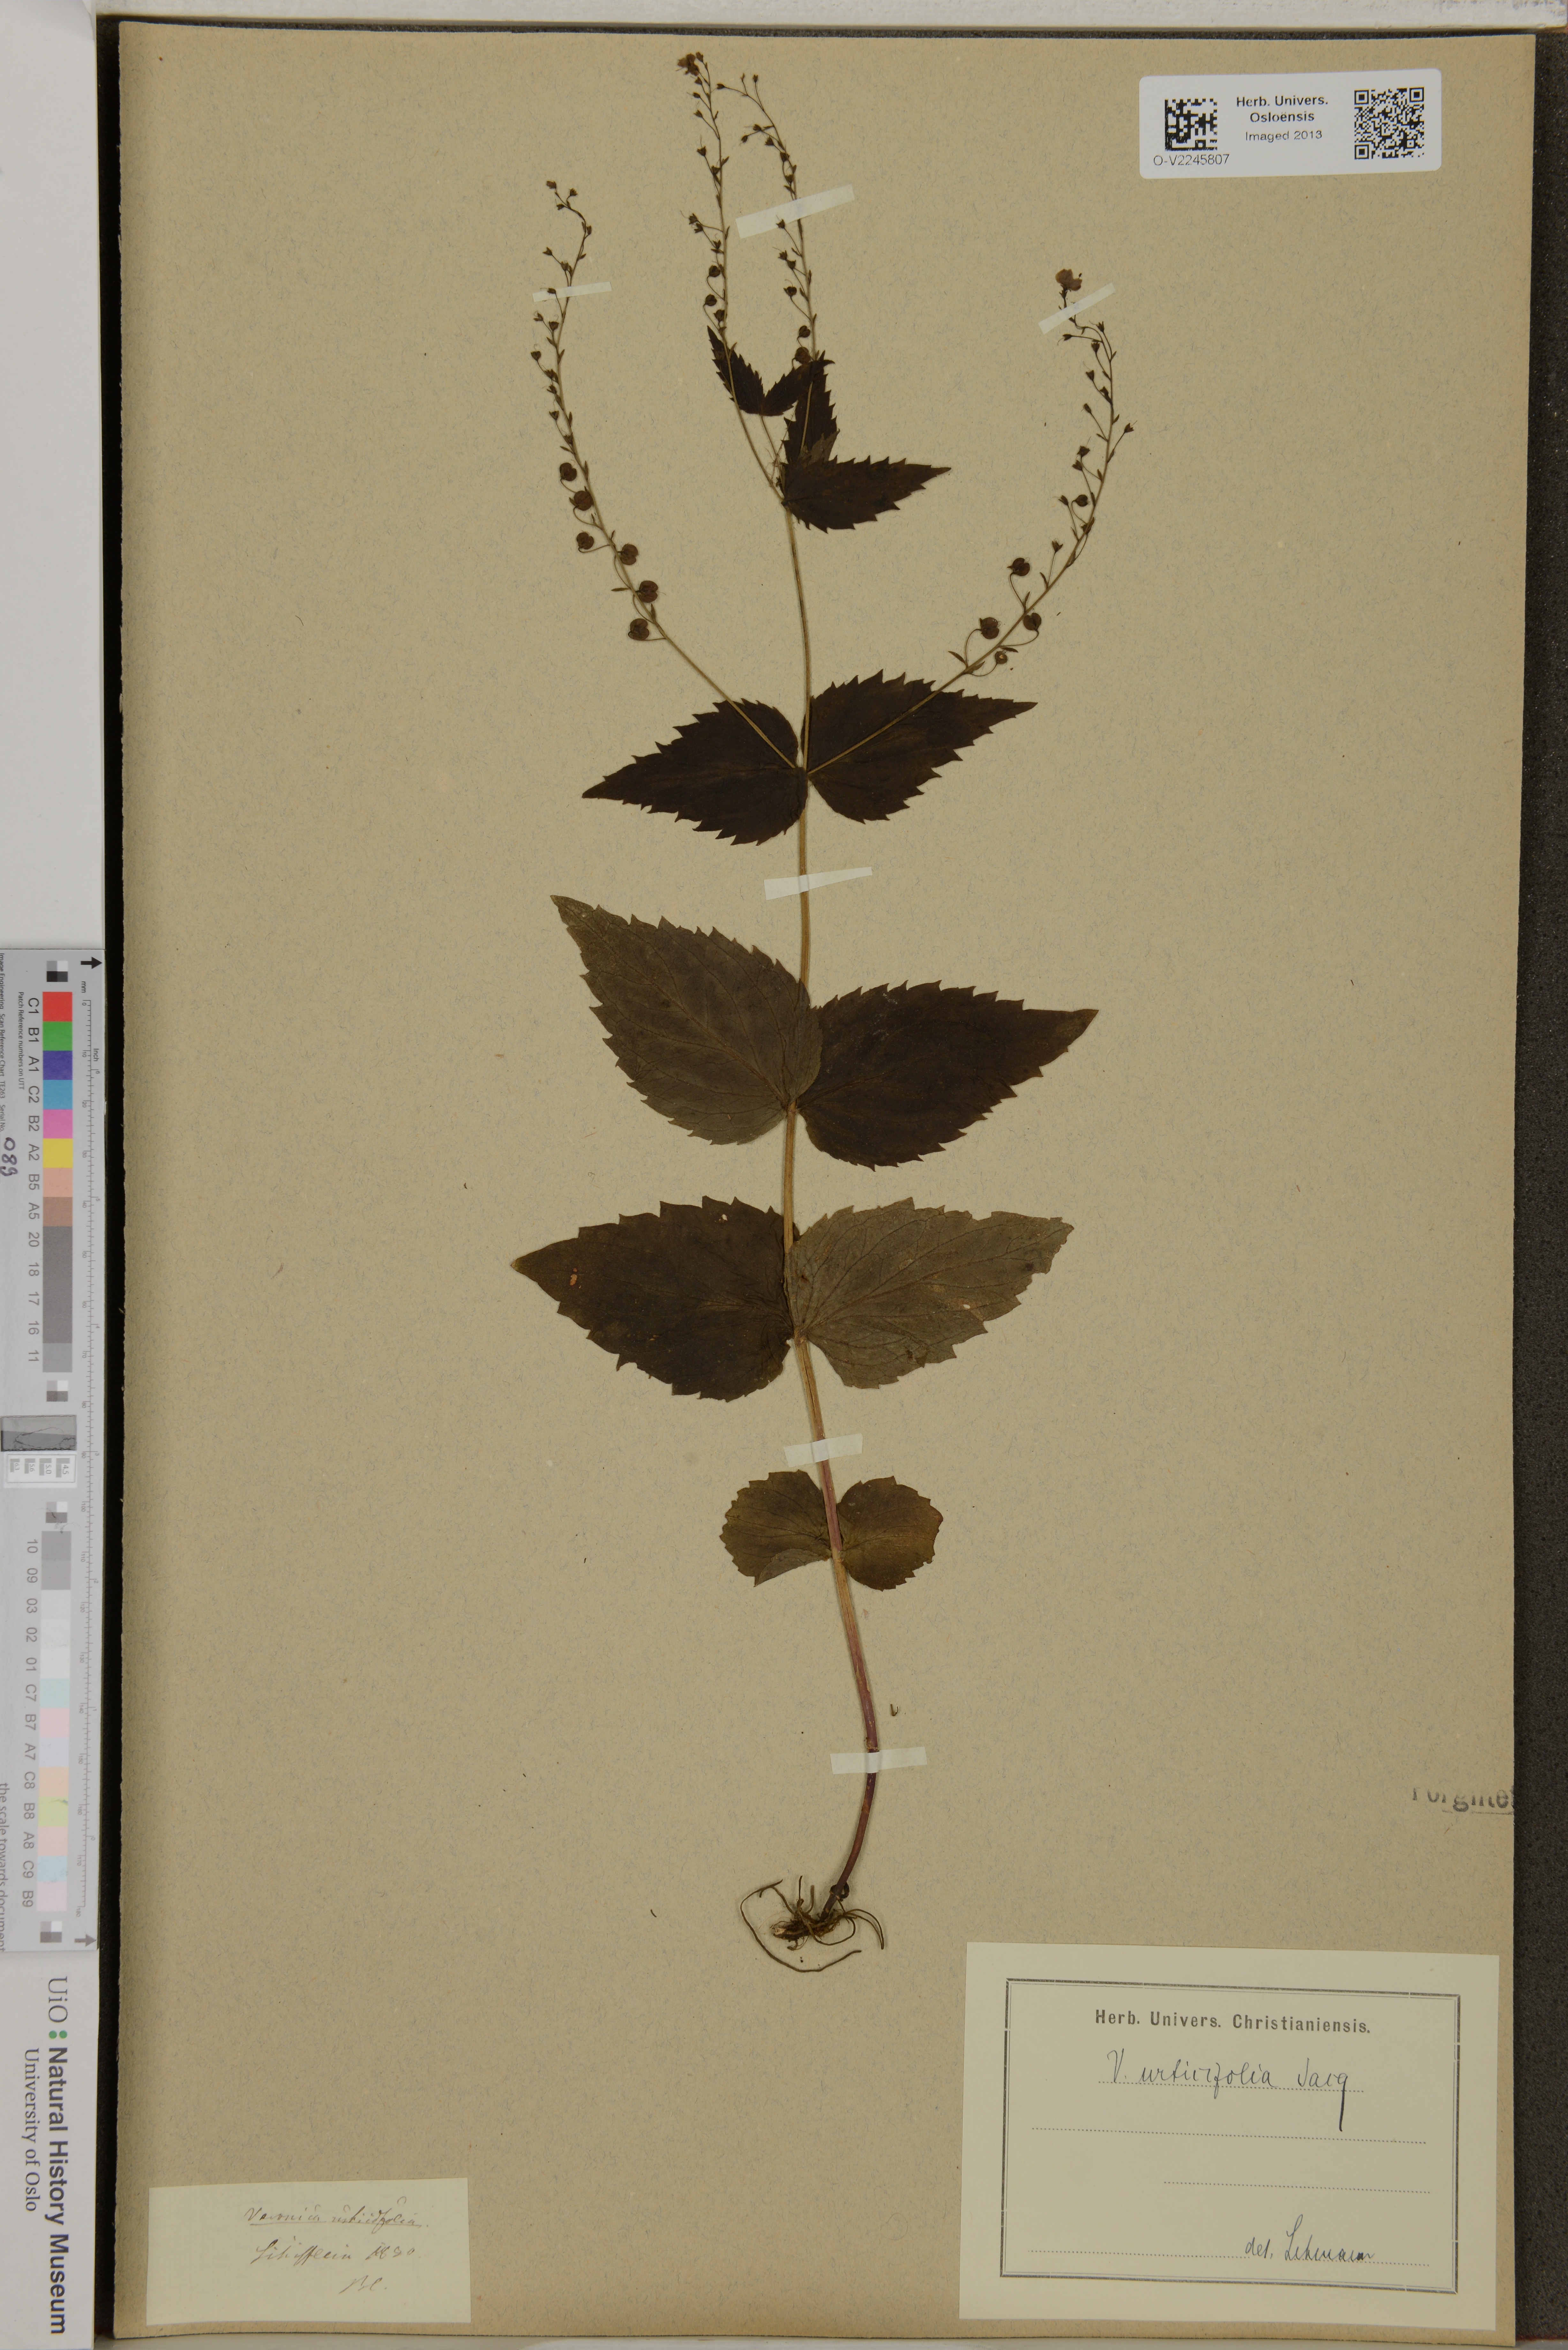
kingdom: Plantae
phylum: Tracheophyta
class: Magnoliopsida
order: Lamiales
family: Plantaginaceae
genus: Veronica
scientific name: Veronica urticifolia
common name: Nettle-leaf speedwell
